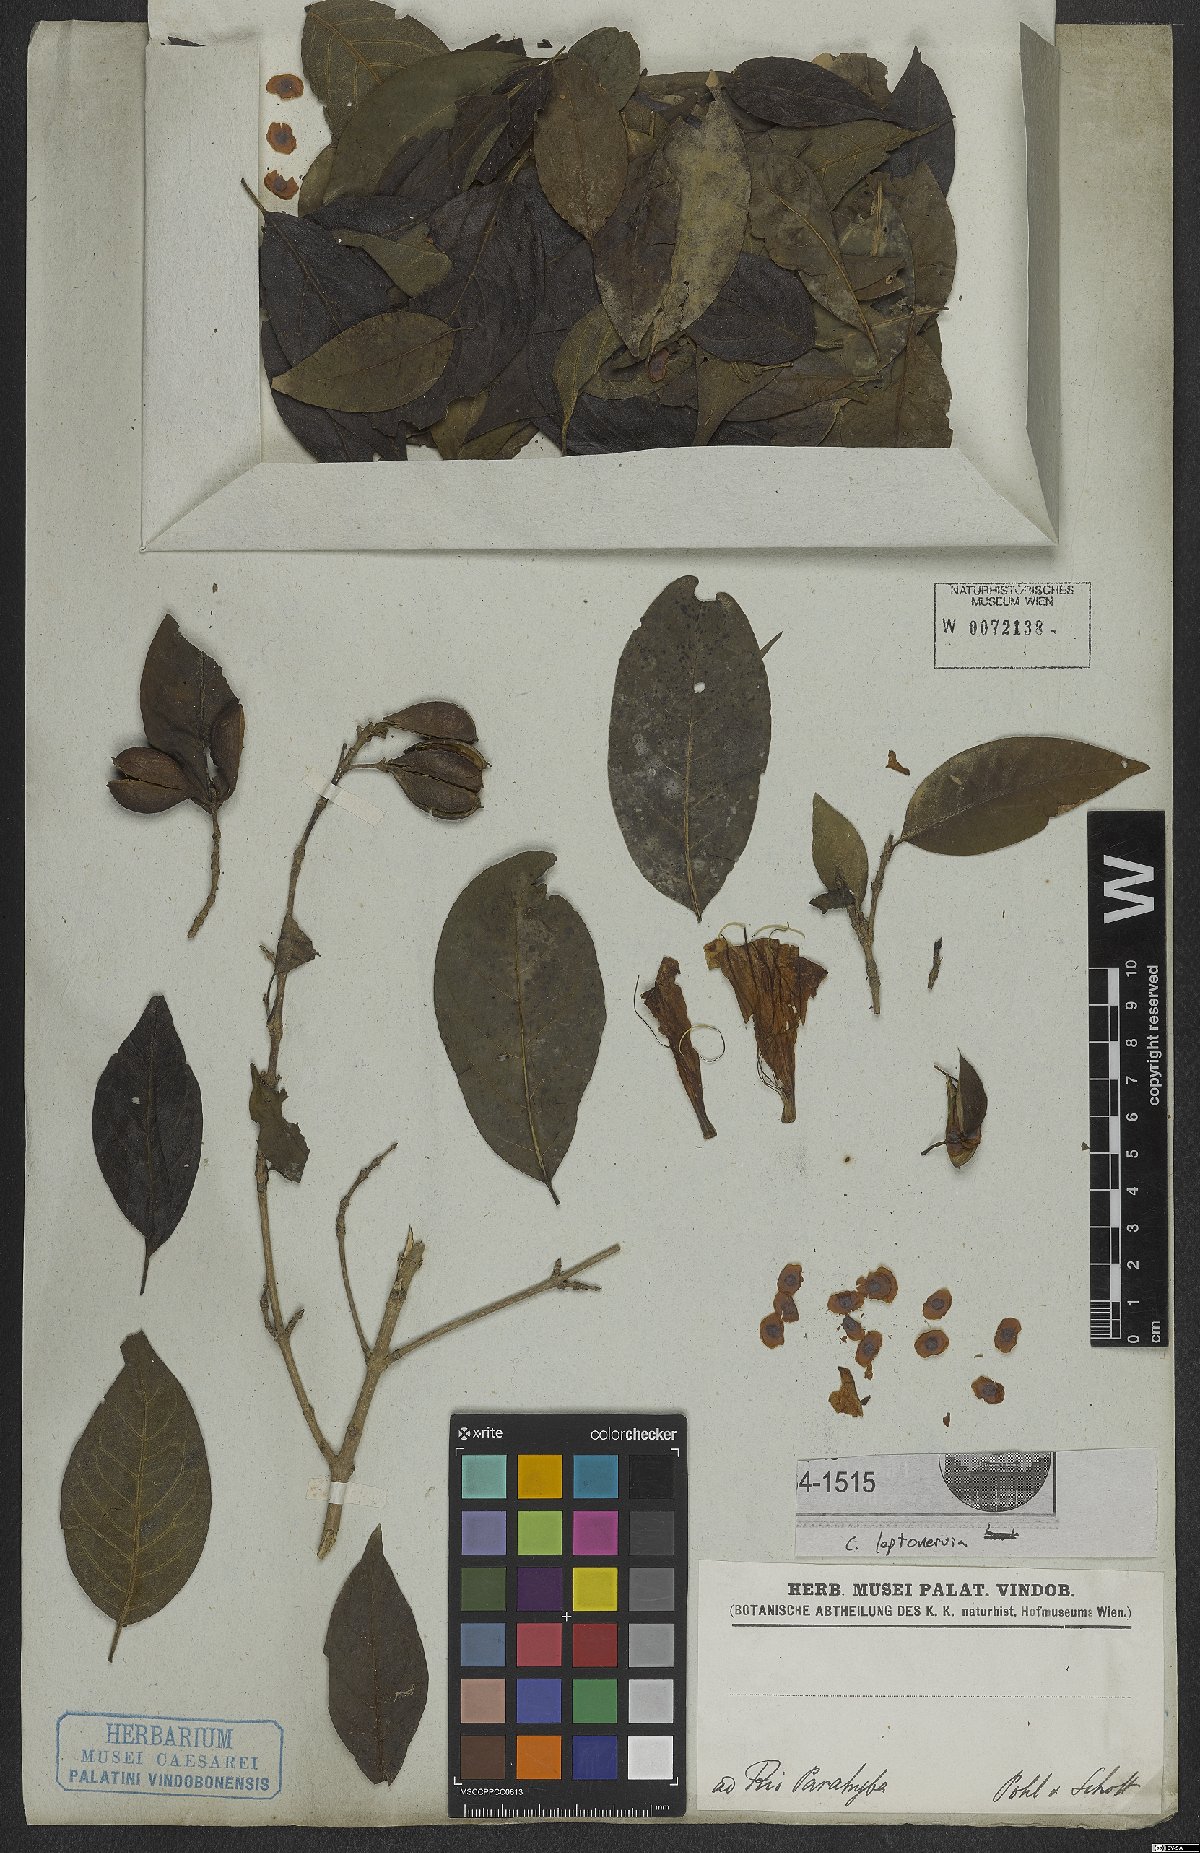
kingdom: Plantae
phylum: Tracheophyta
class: Magnoliopsida
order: Gentianales
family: Rubiaceae
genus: Coutarea
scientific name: Coutarea
